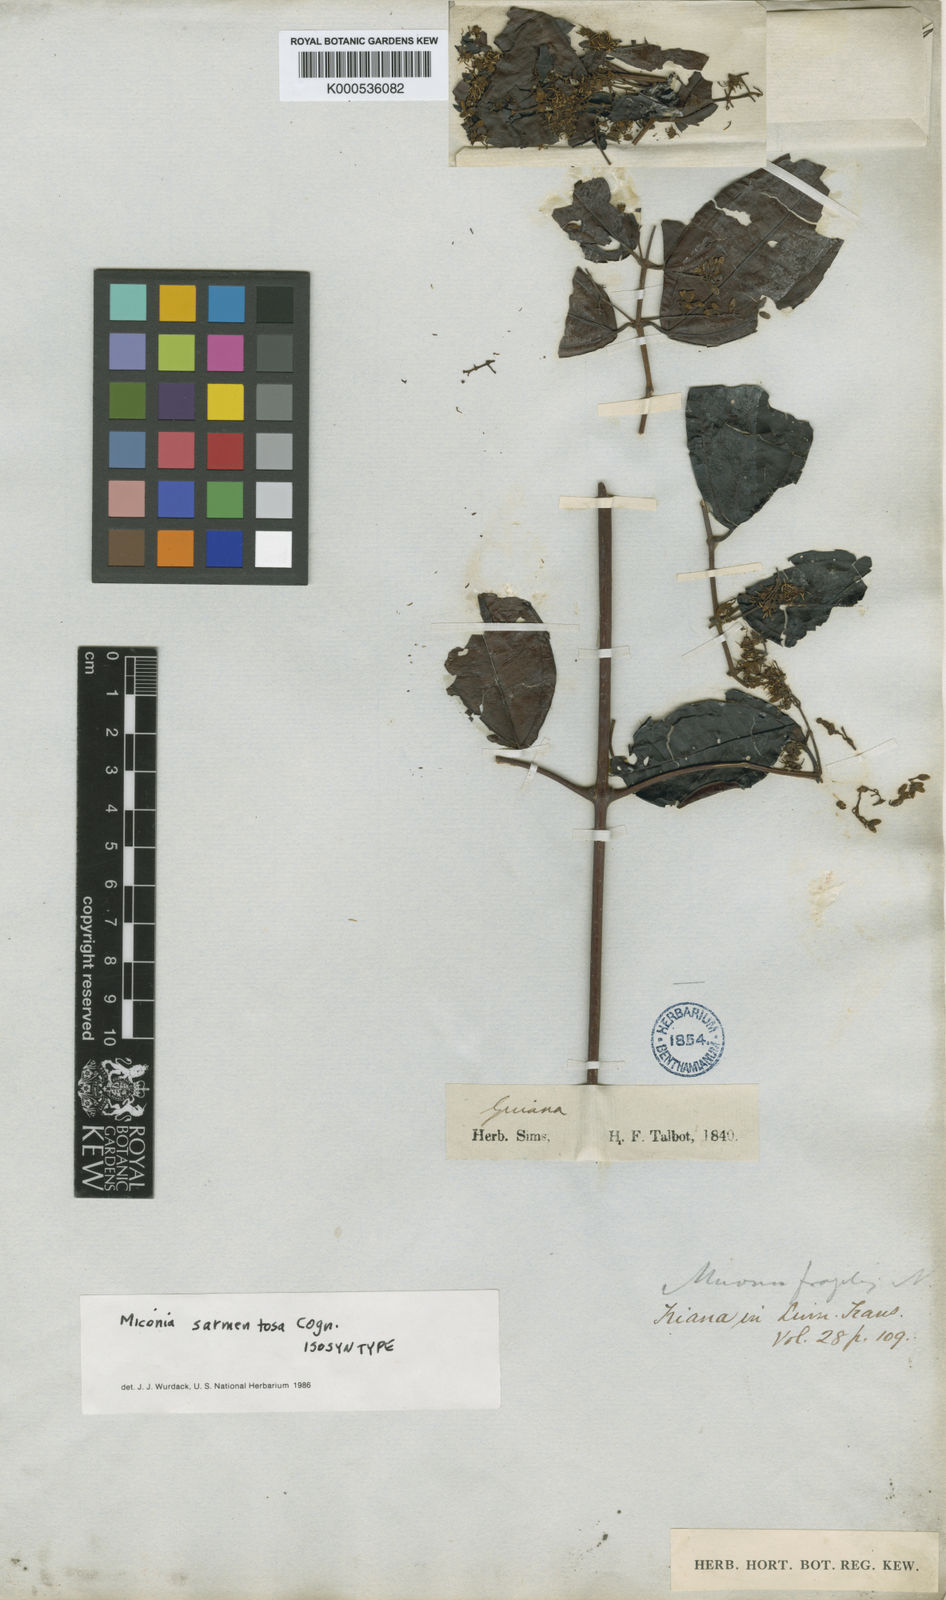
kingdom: Plantae
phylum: Tracheophyta
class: Magnoliopsida
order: Myrtales
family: Melastomataceae
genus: Miconia
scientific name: Miconia sarmentosa
